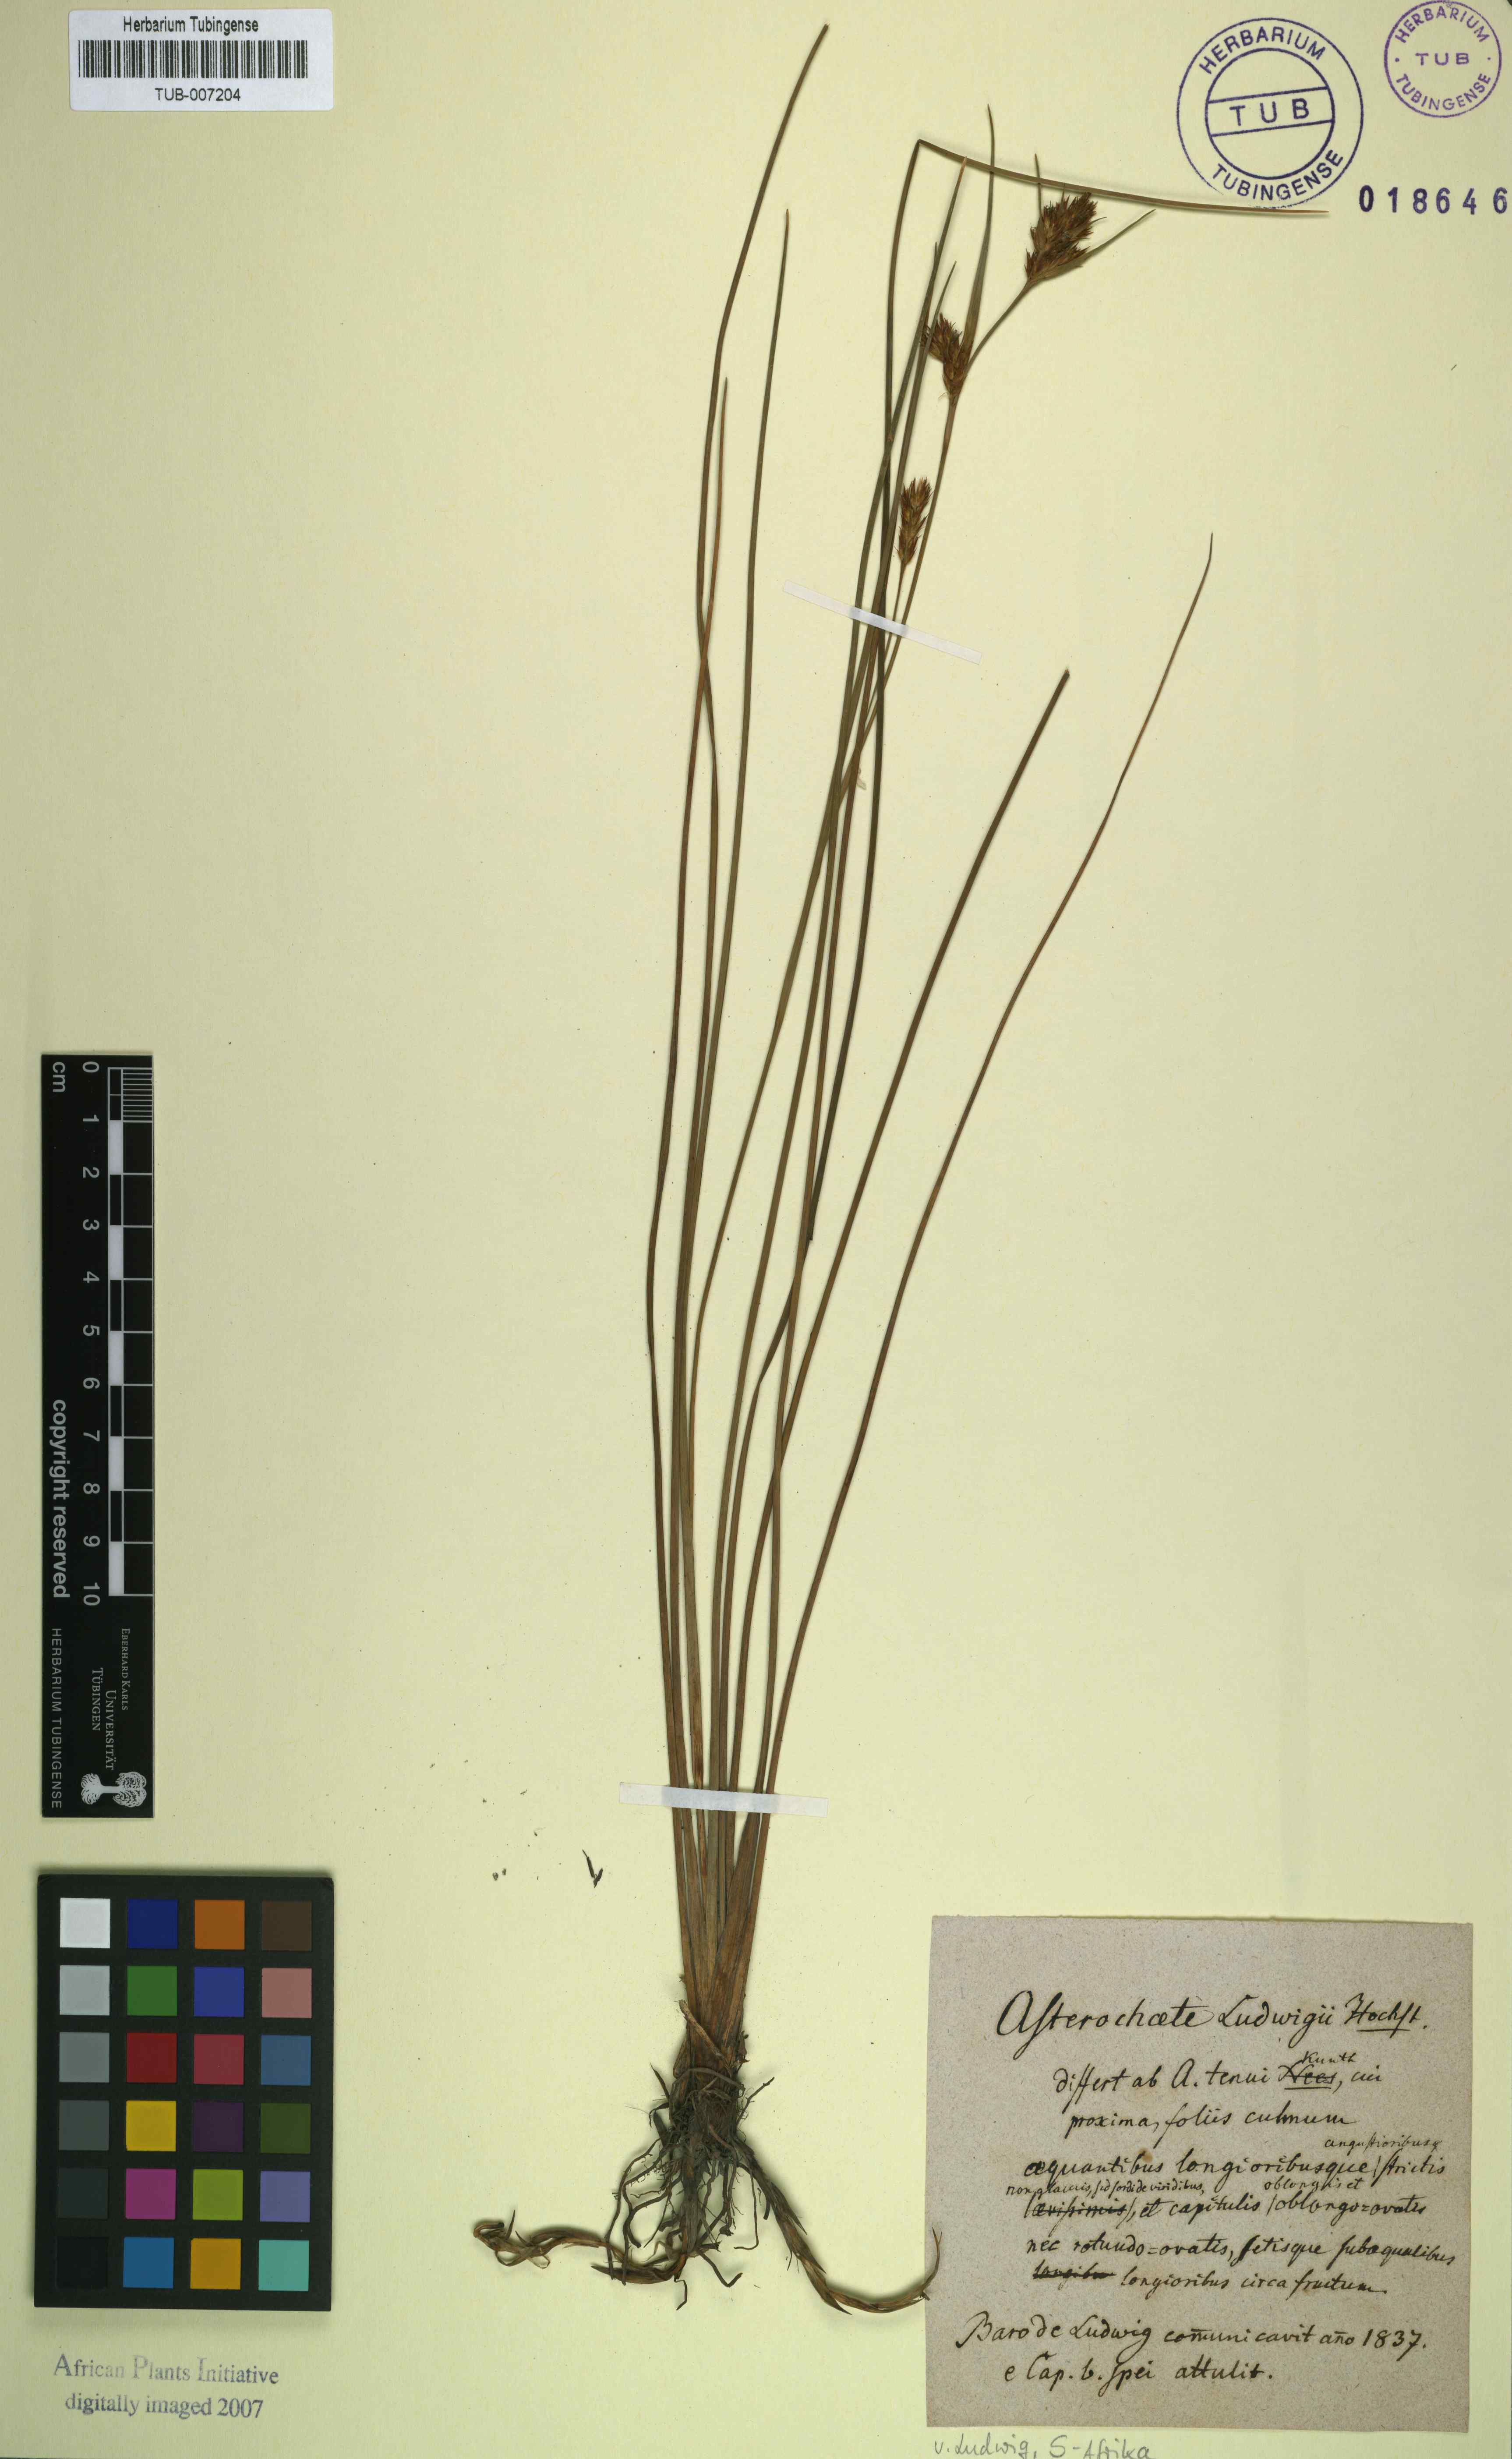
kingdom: Plantae
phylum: Tracheophyta
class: Liliopsida
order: Poales
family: Cyperaceae
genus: Carpha
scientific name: Carpha capitellata
